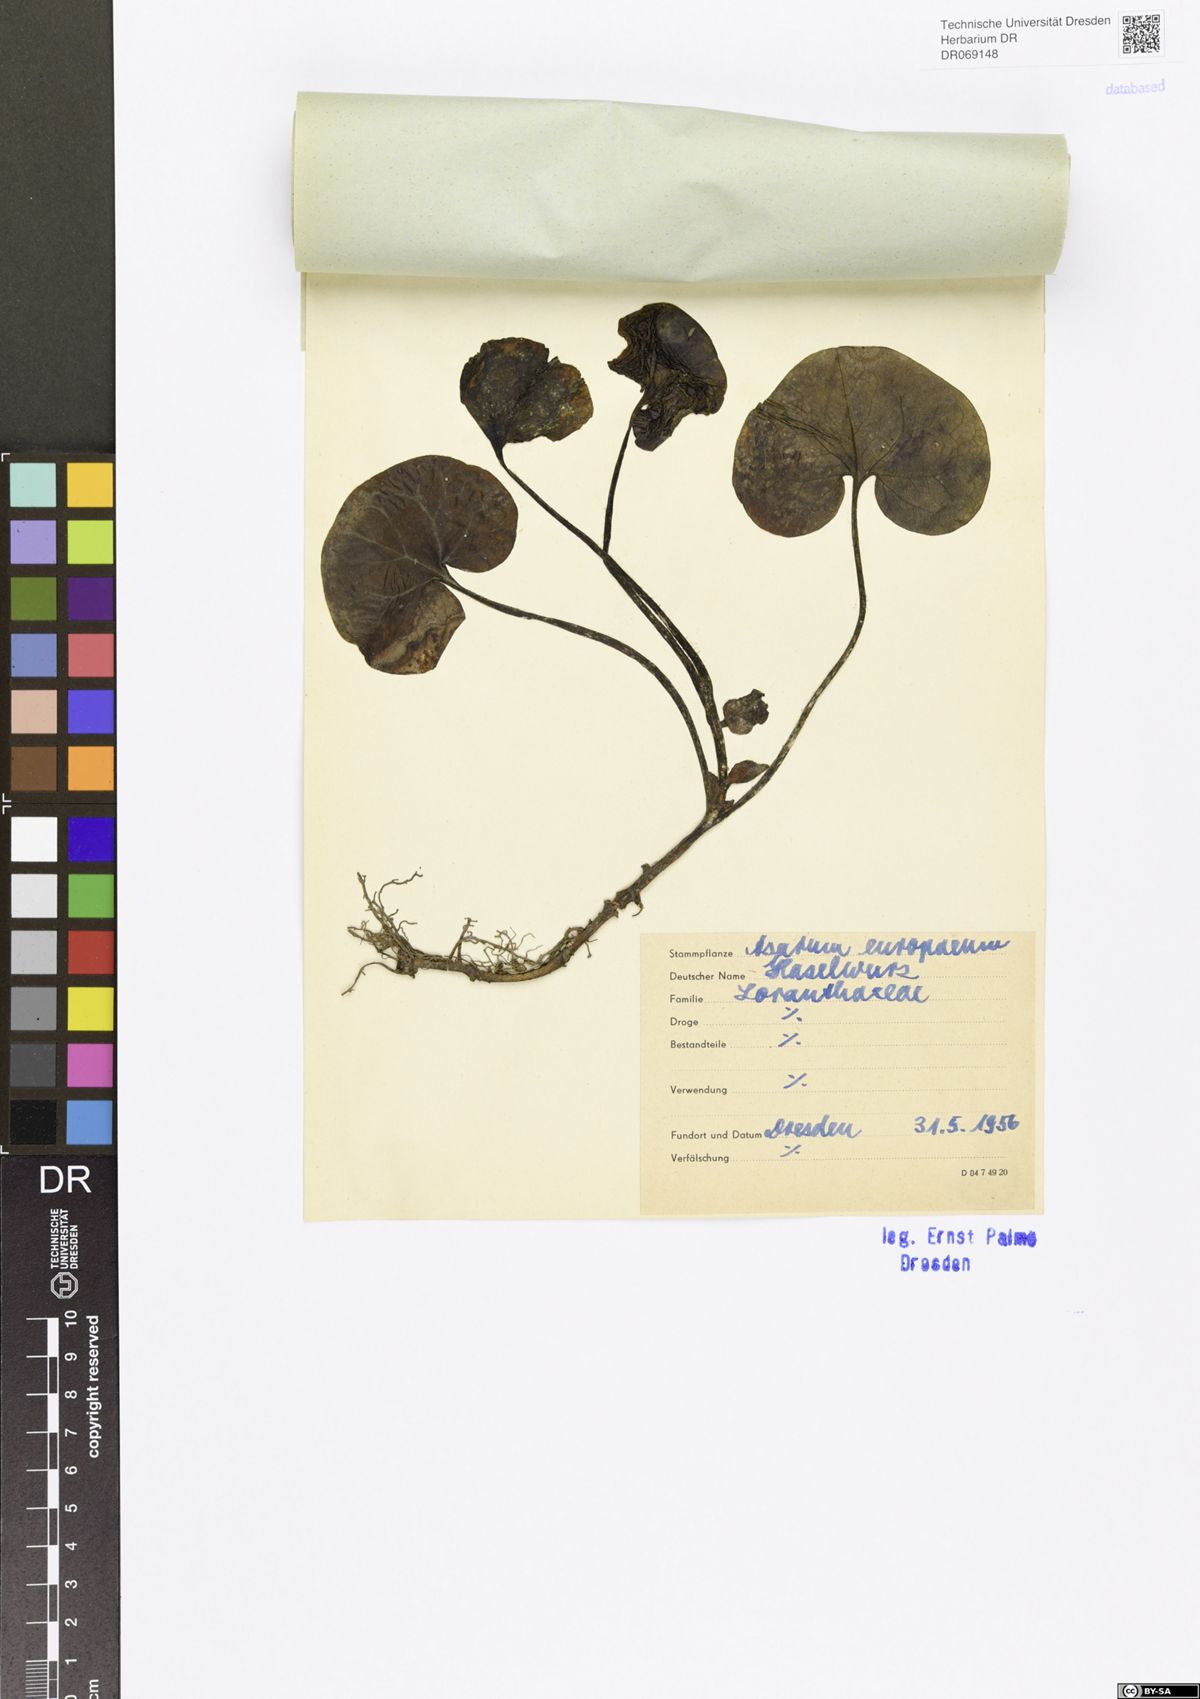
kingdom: Plantae
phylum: Tracheophyta
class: Magnoliopsida
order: Piperales
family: Aristolochiaceae
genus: Asarum
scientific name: Asarum europaeum
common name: Asarabacca
